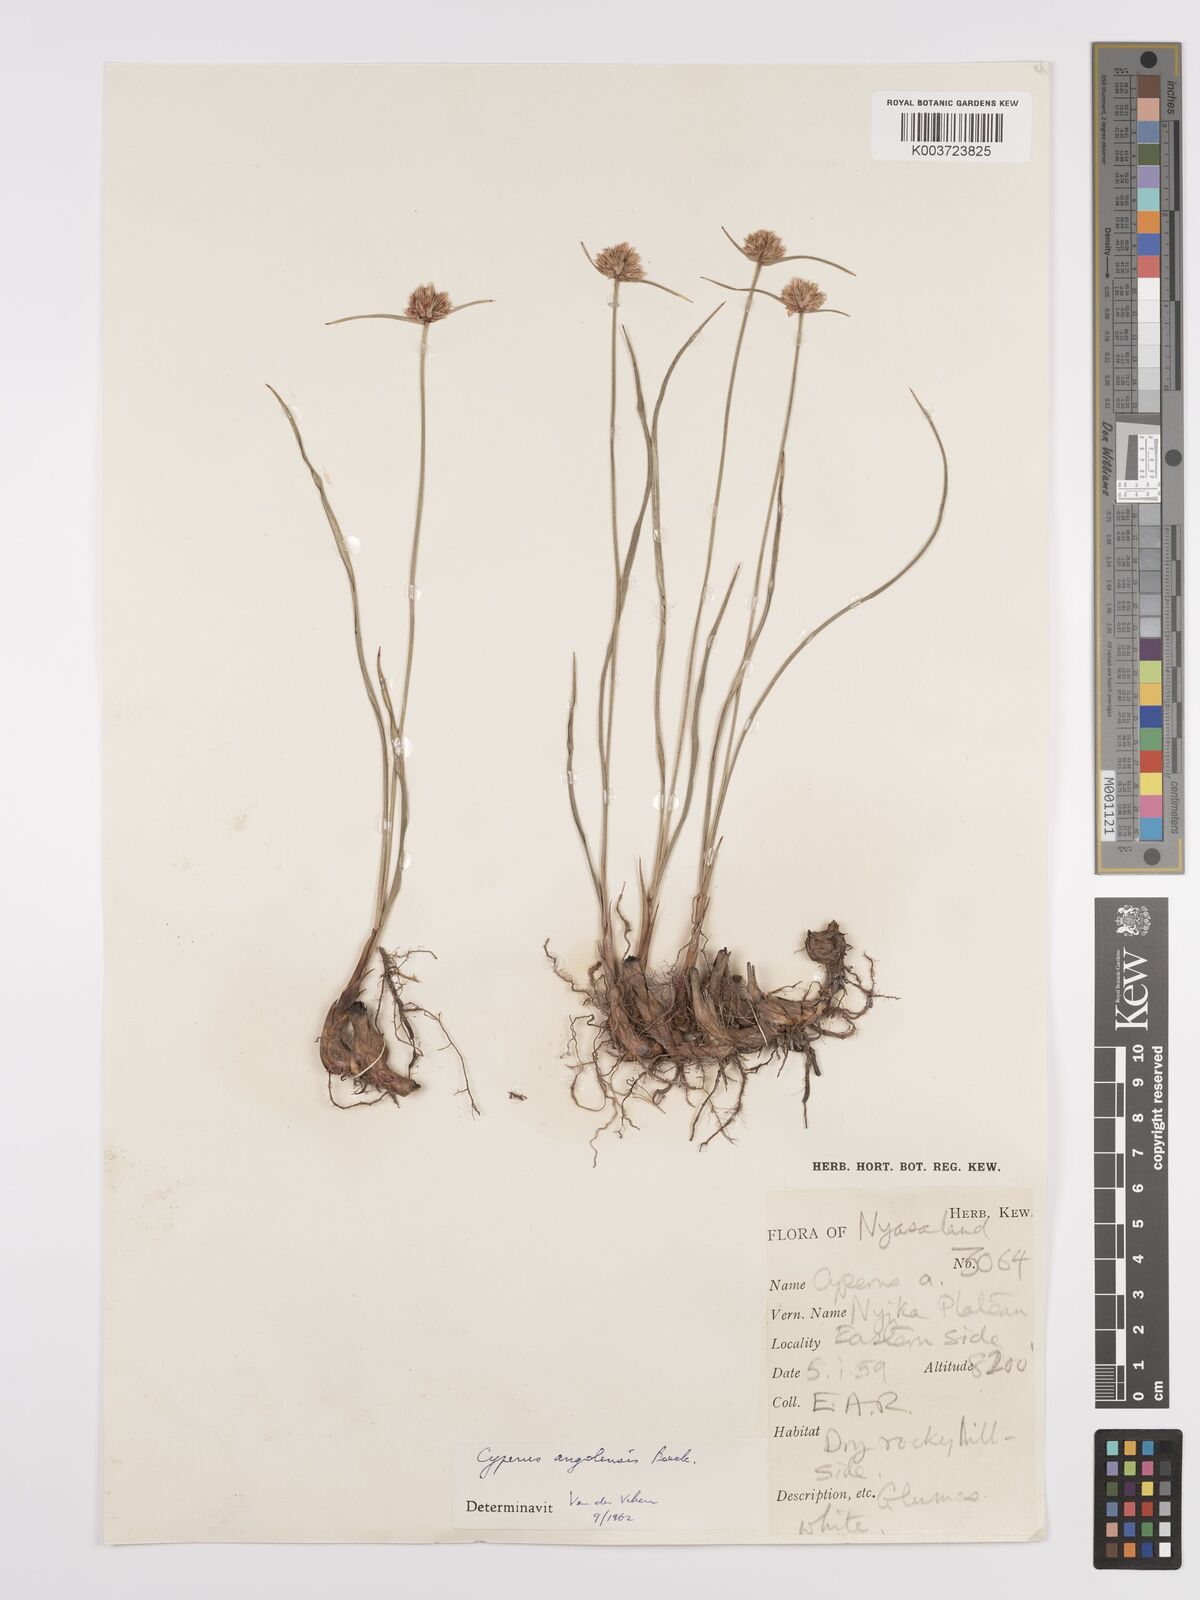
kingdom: Plantae
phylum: Tracheophyta
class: Liliopsida
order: Poales
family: Cyperaceae
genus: Cyperus
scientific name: Cyperus angolensis
